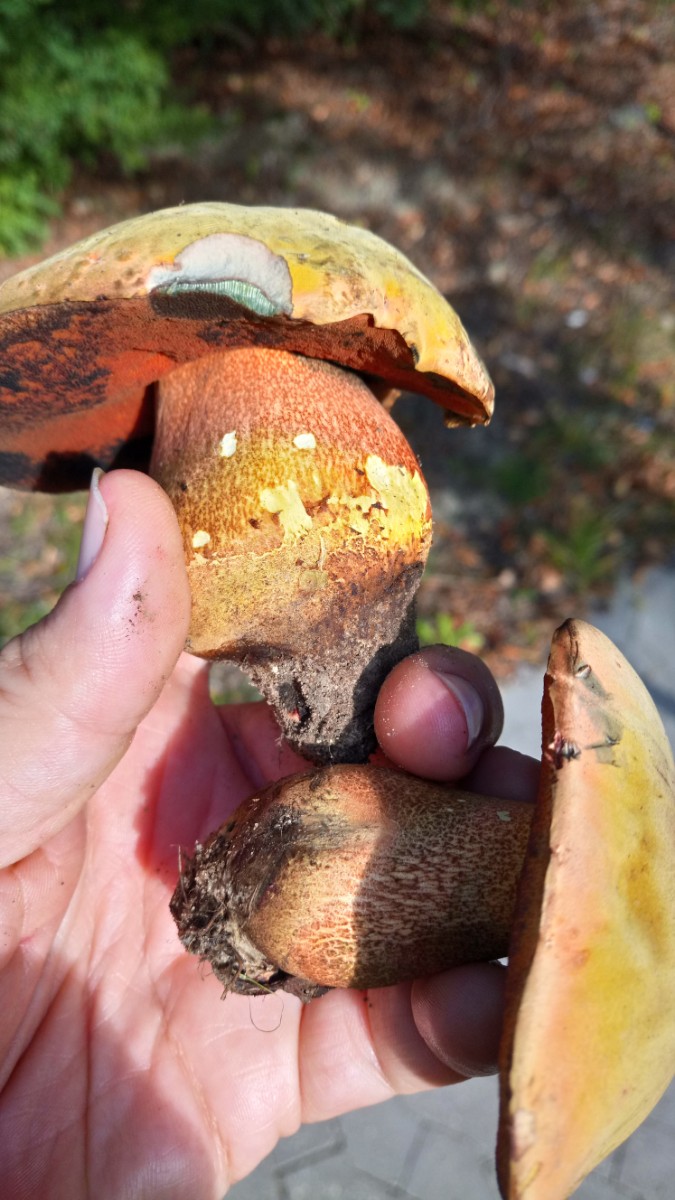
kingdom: Fungi
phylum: Basidiomycota
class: Agaricomycetes
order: Boletales
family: Boletaceae
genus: Suillellus
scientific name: Suillellus luridus
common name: netstokket indigorørhat
